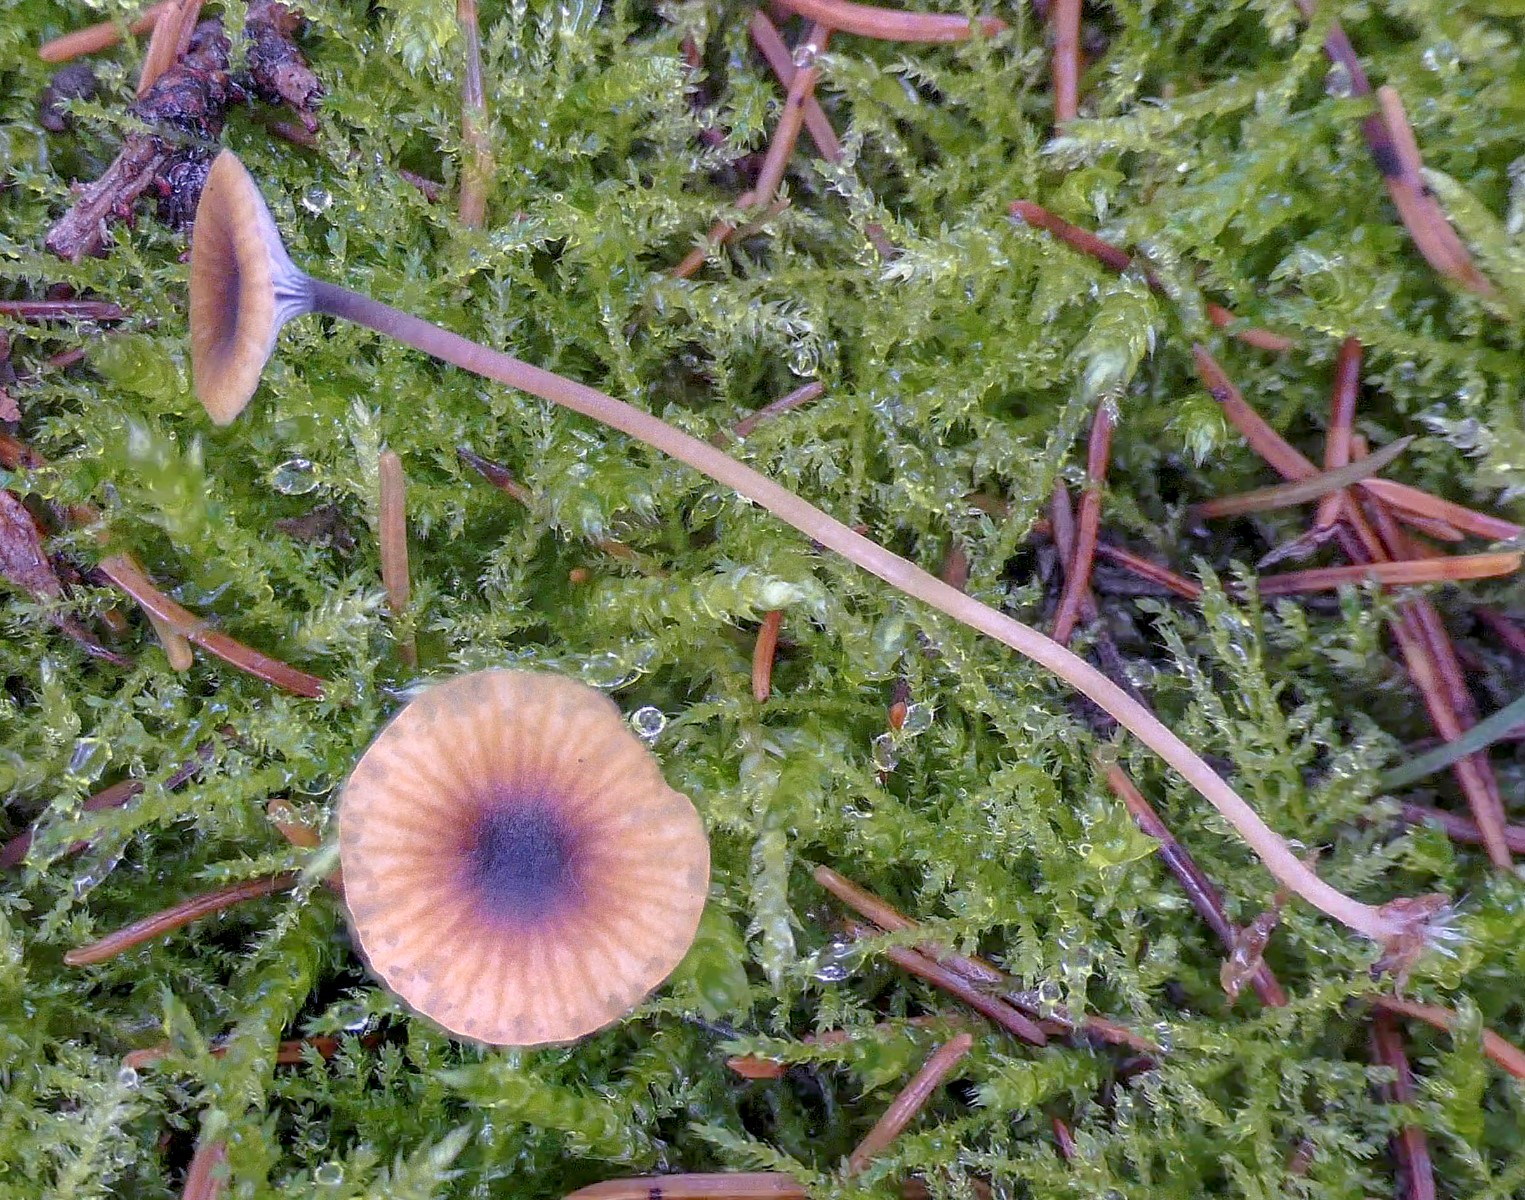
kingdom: Fungi
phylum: Basidiomycota
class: Agaricomycetes
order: Hymenochaetales
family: Rickenellaceae
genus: Rickenella
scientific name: Rickenella swartzii
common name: finstokket mosnavlehat
